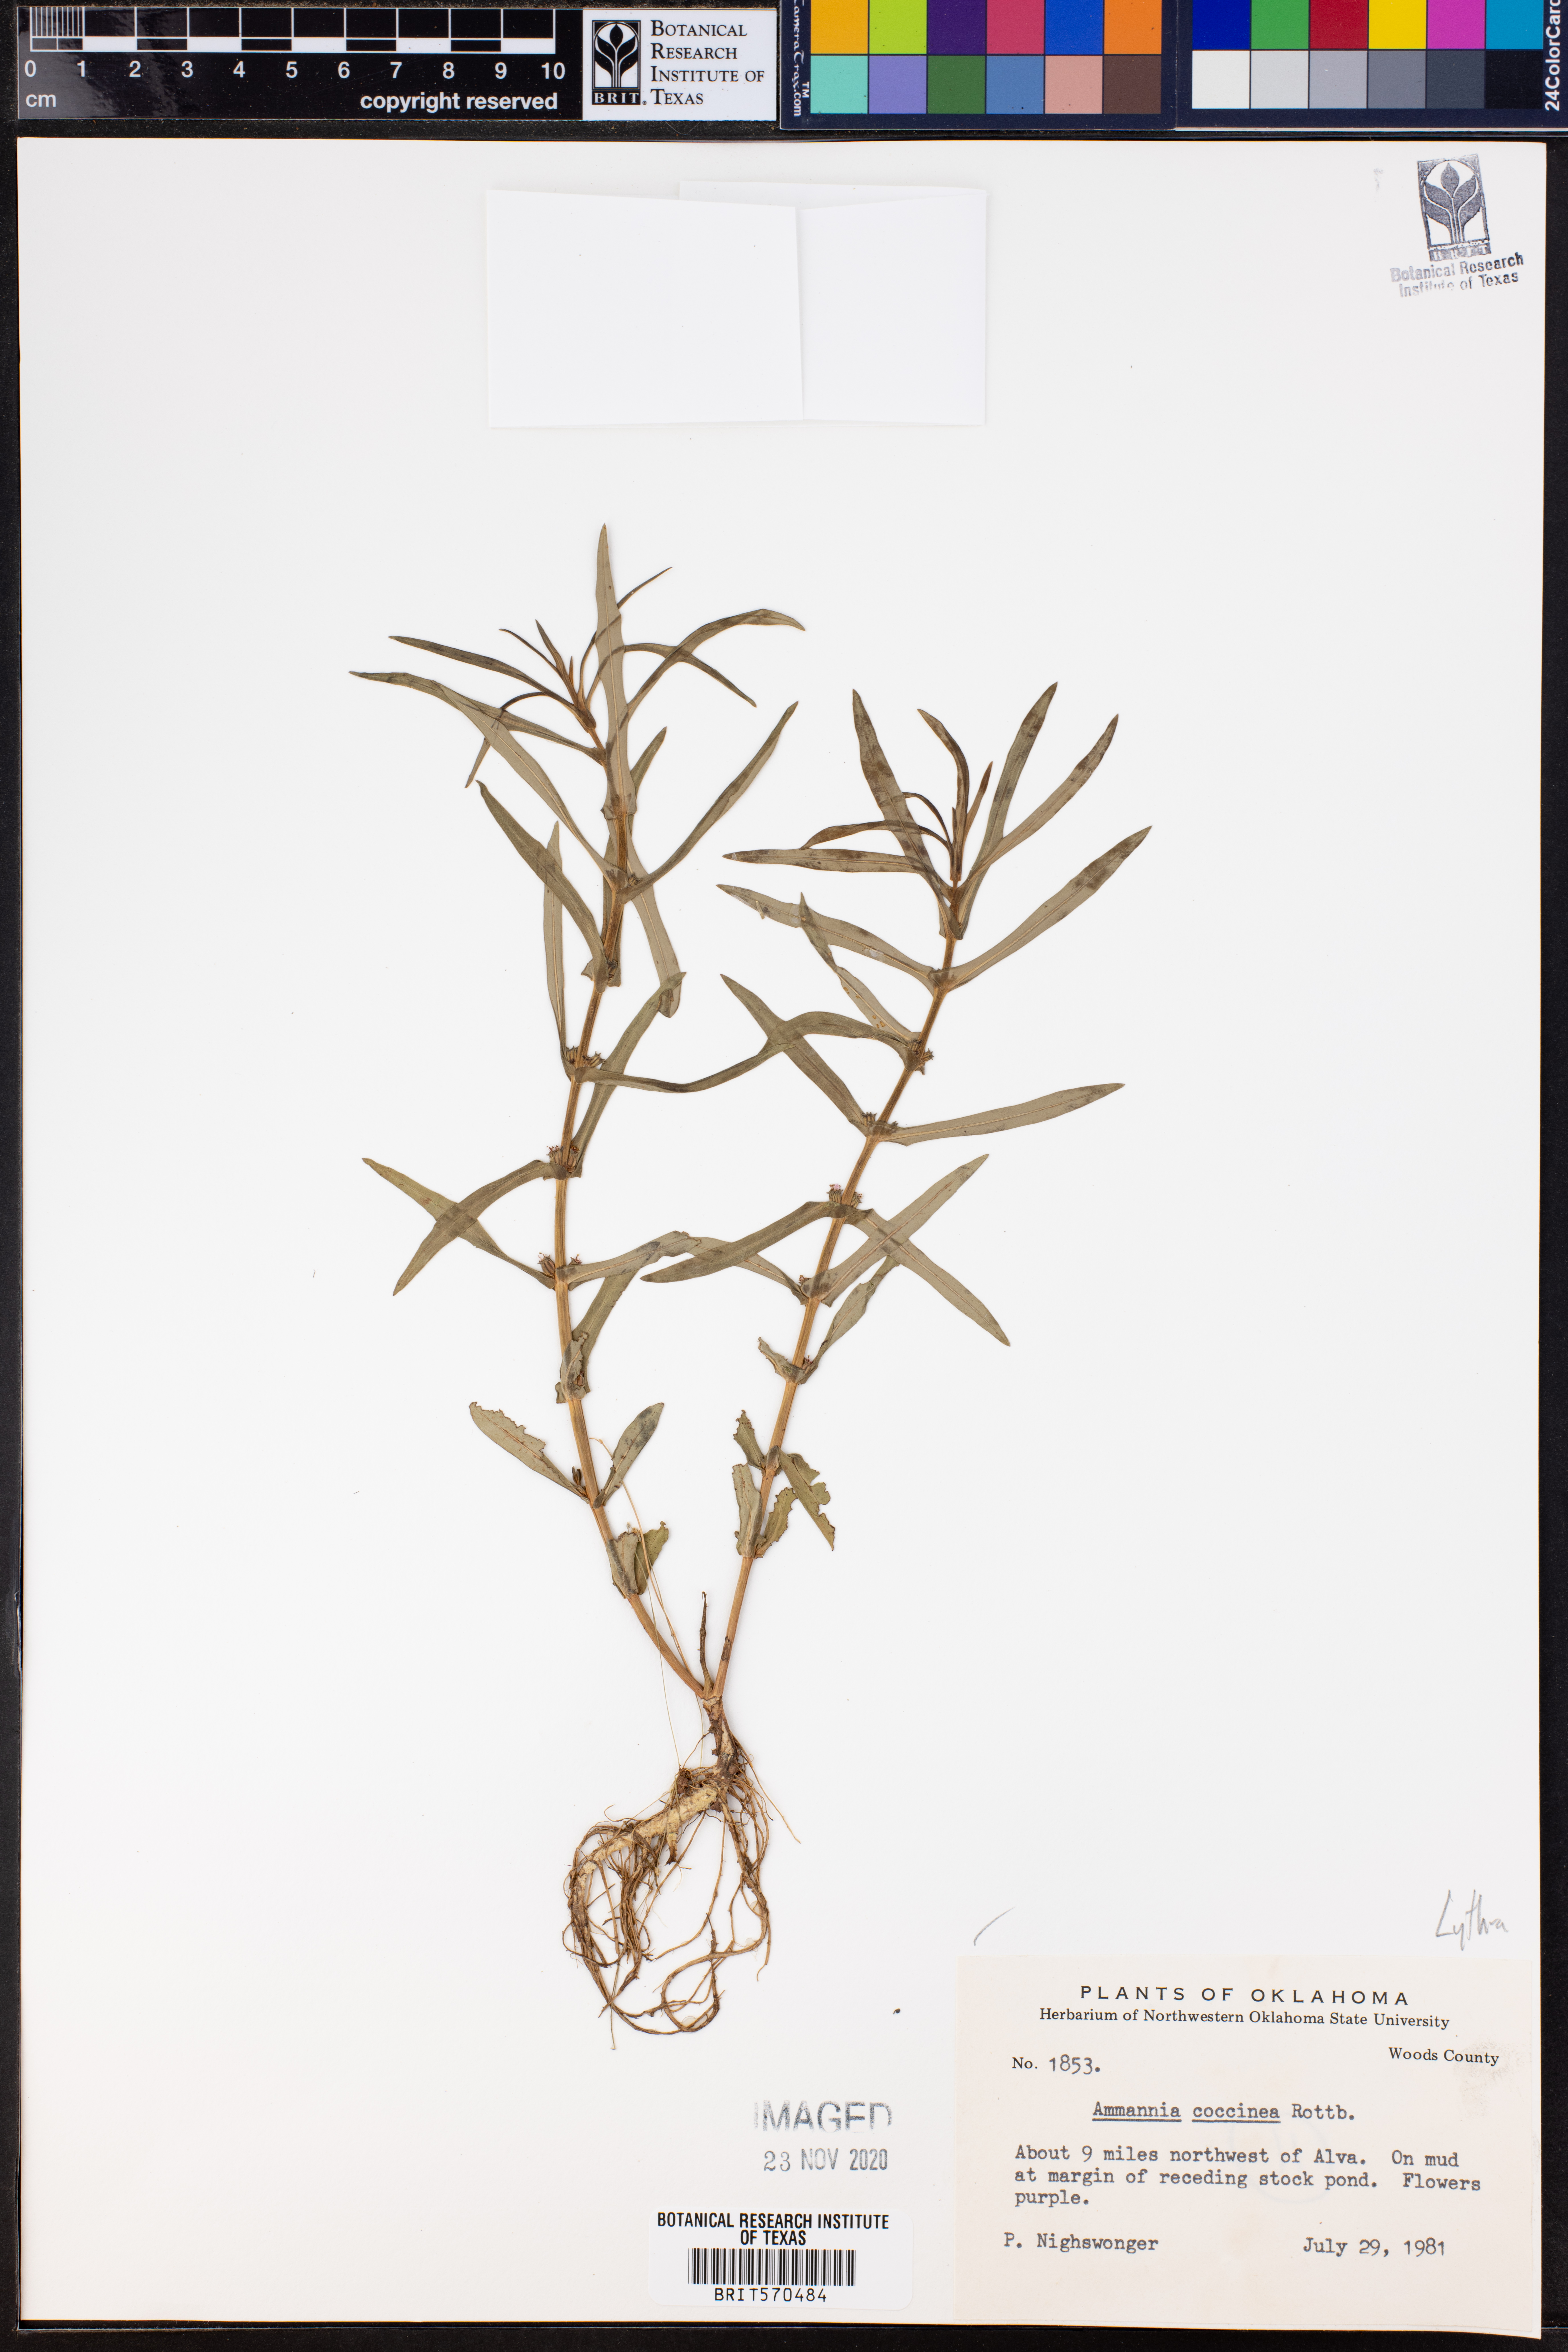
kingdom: Plantae
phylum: Tracheophyta
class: Magnoliopsida
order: Myrtales
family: Lythraceae
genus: Ammannia
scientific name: Ammannia coccinea
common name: Valley redstem
